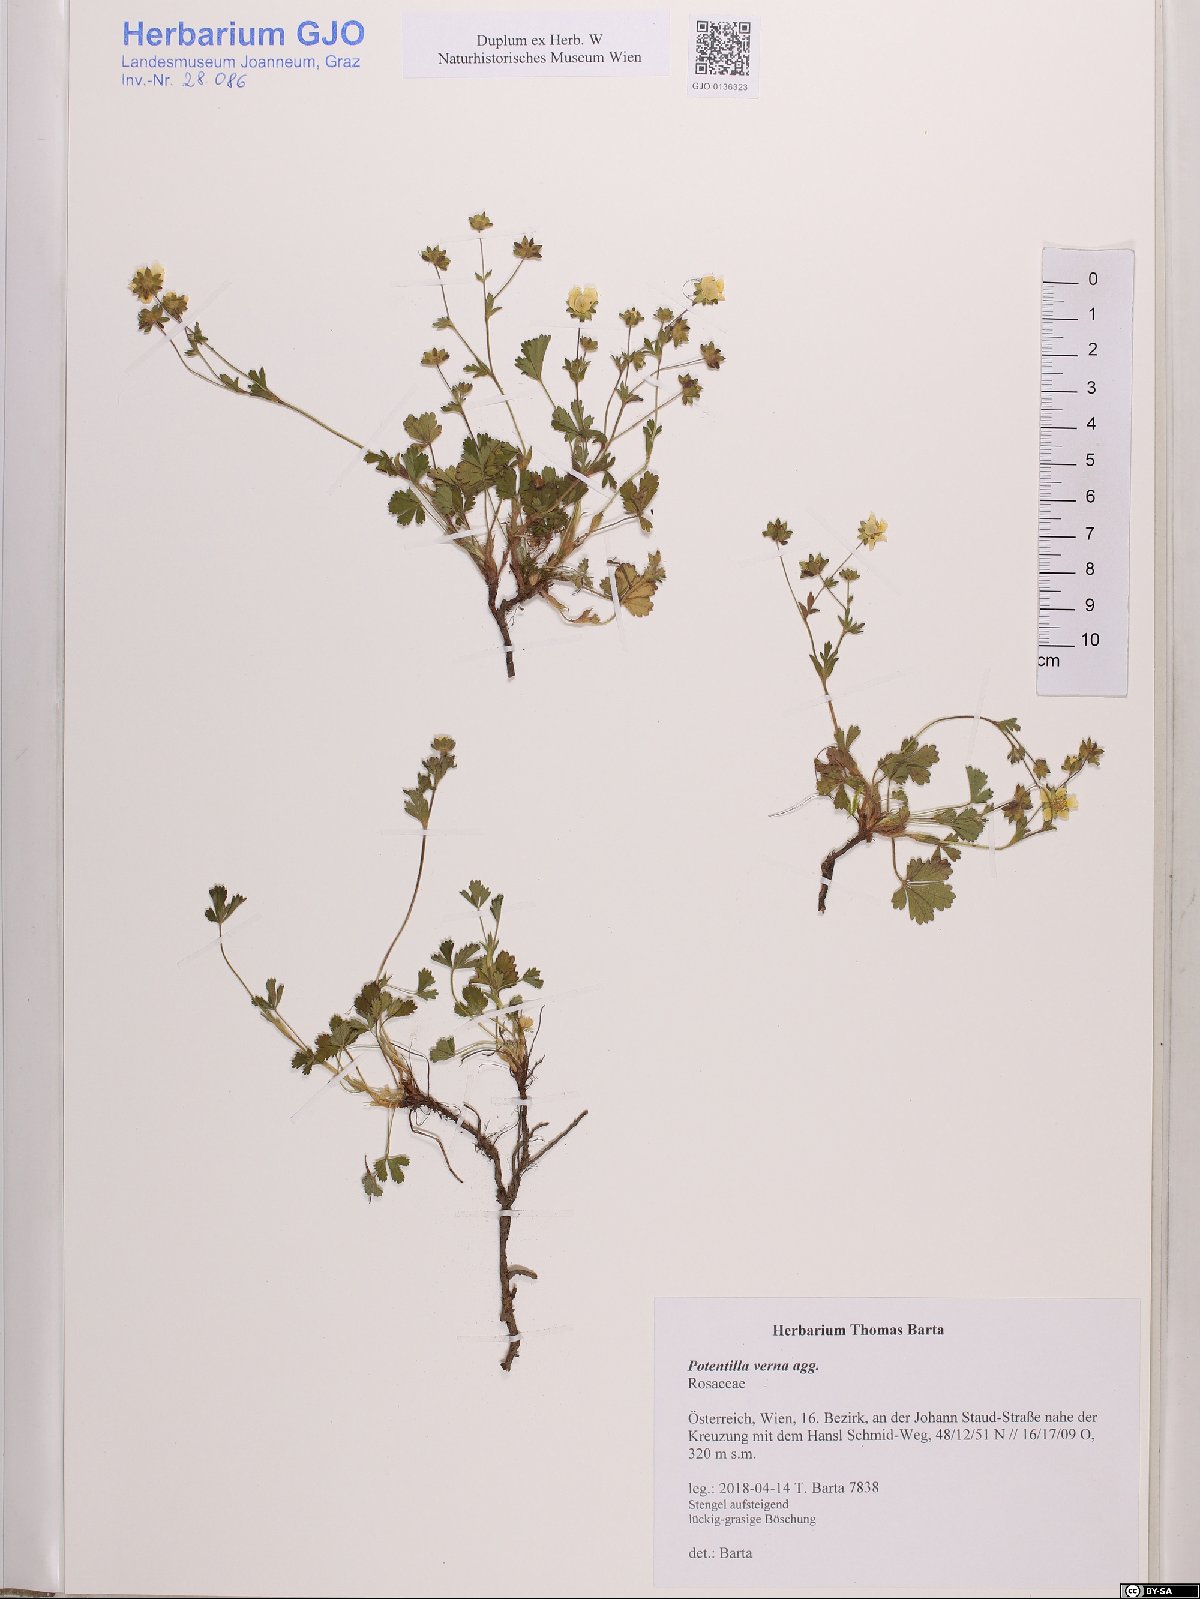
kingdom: Plantae
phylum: Tracheophyta
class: Magnoliopsida
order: Rosales
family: Rosaceae
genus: Potentilla
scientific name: Potentilla verna
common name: Spring cinquefoil
